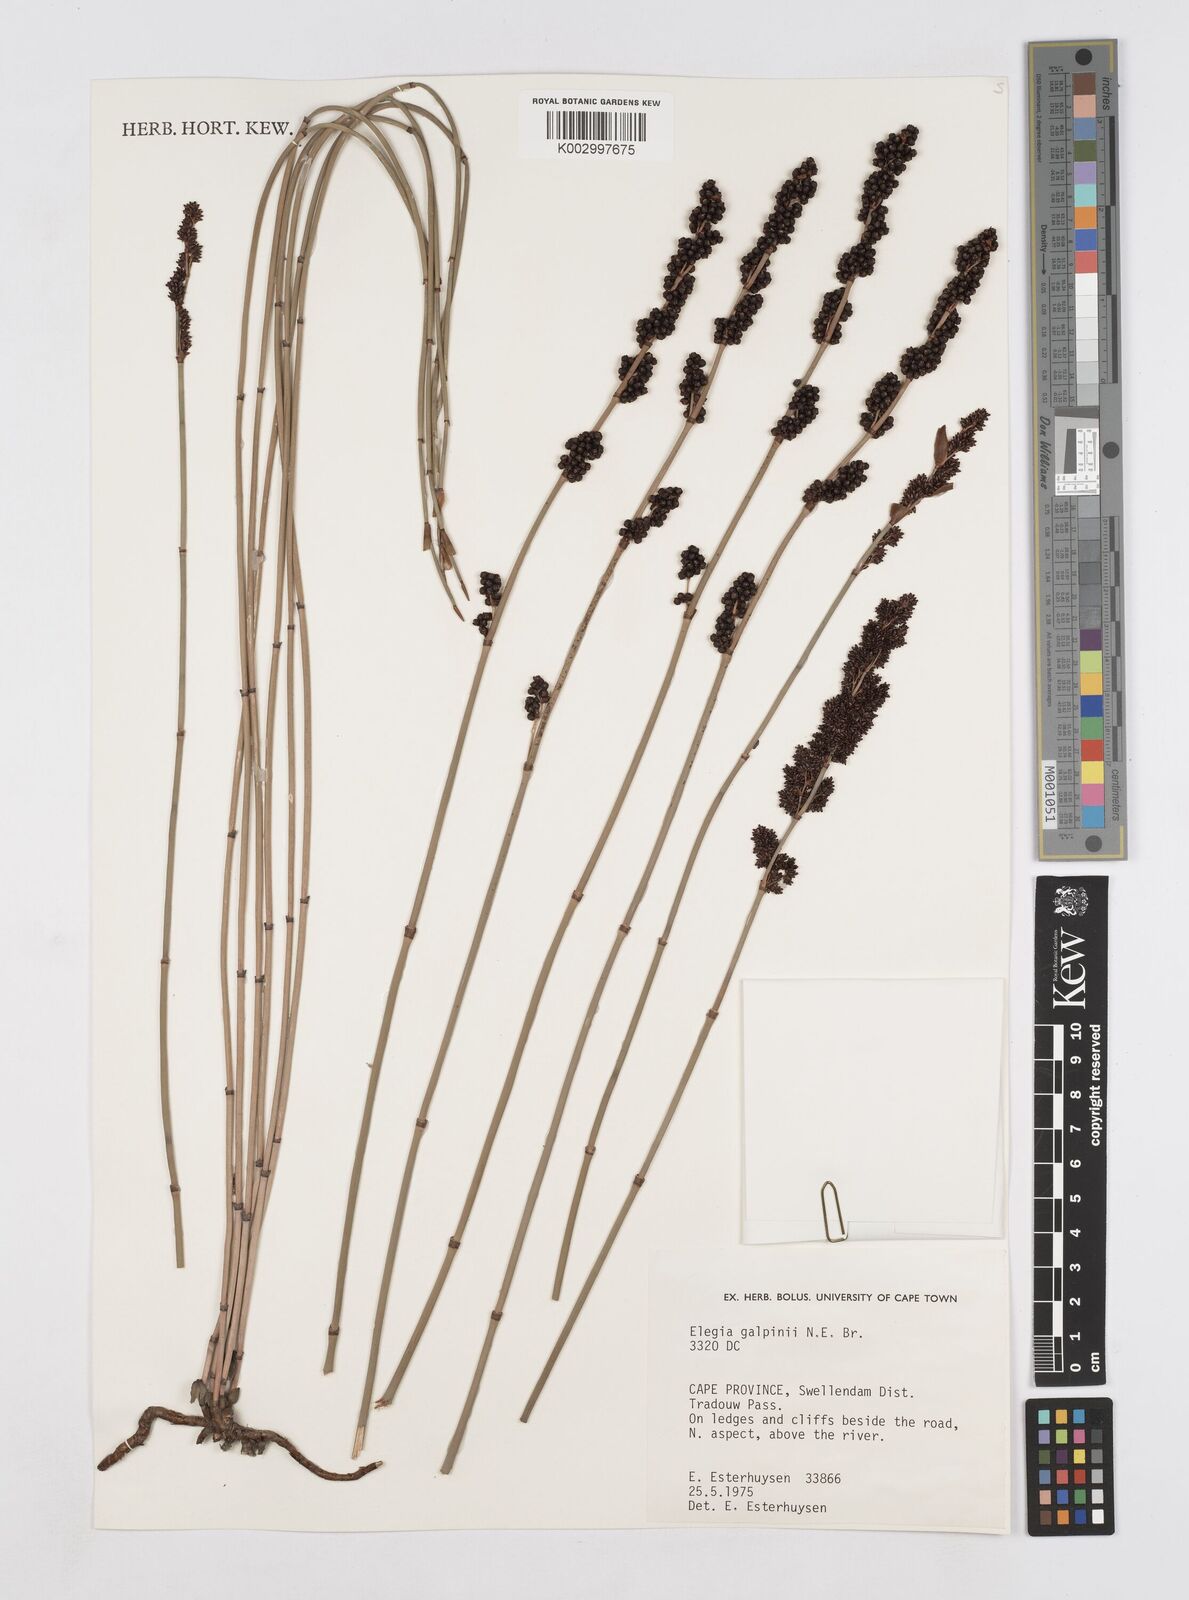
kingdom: Plantae
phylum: Tracheophyta
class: Liliopsida
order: Poales
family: Restionaceae
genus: Elegia
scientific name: Elegia galpinii
